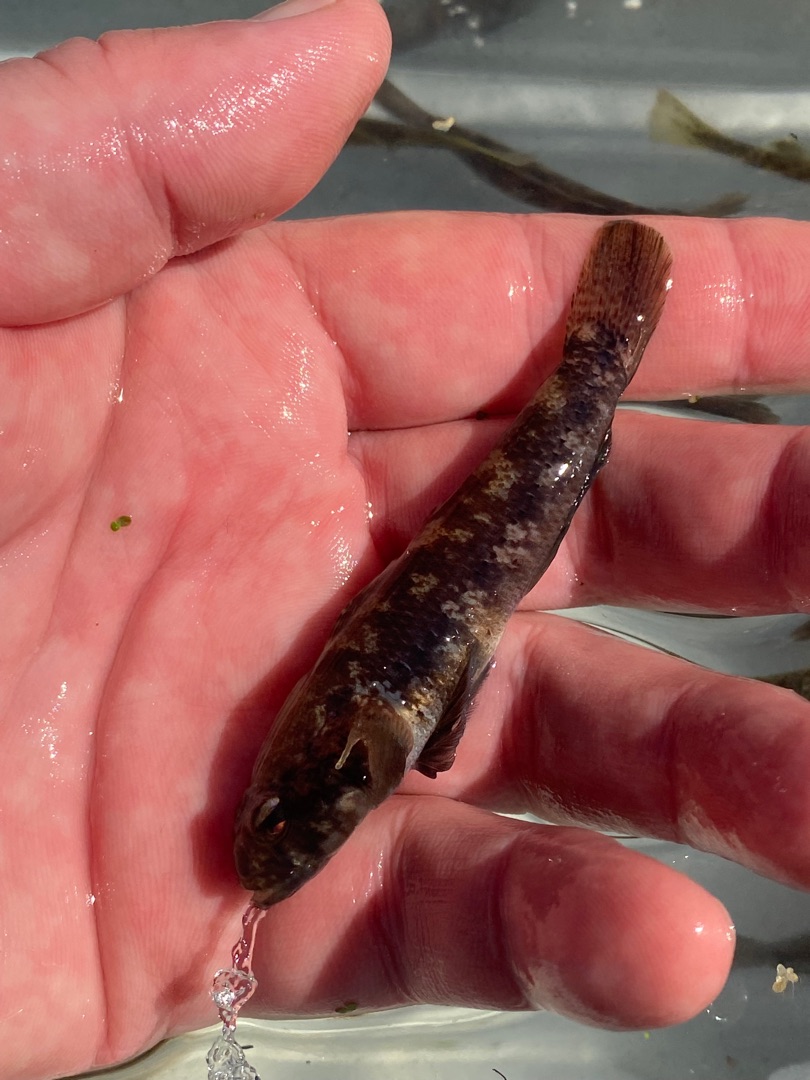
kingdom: Animalia
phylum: Chordata
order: Perciformes
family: Gobiidae
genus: Gobius
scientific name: Gobius niger
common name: Sortkutling
